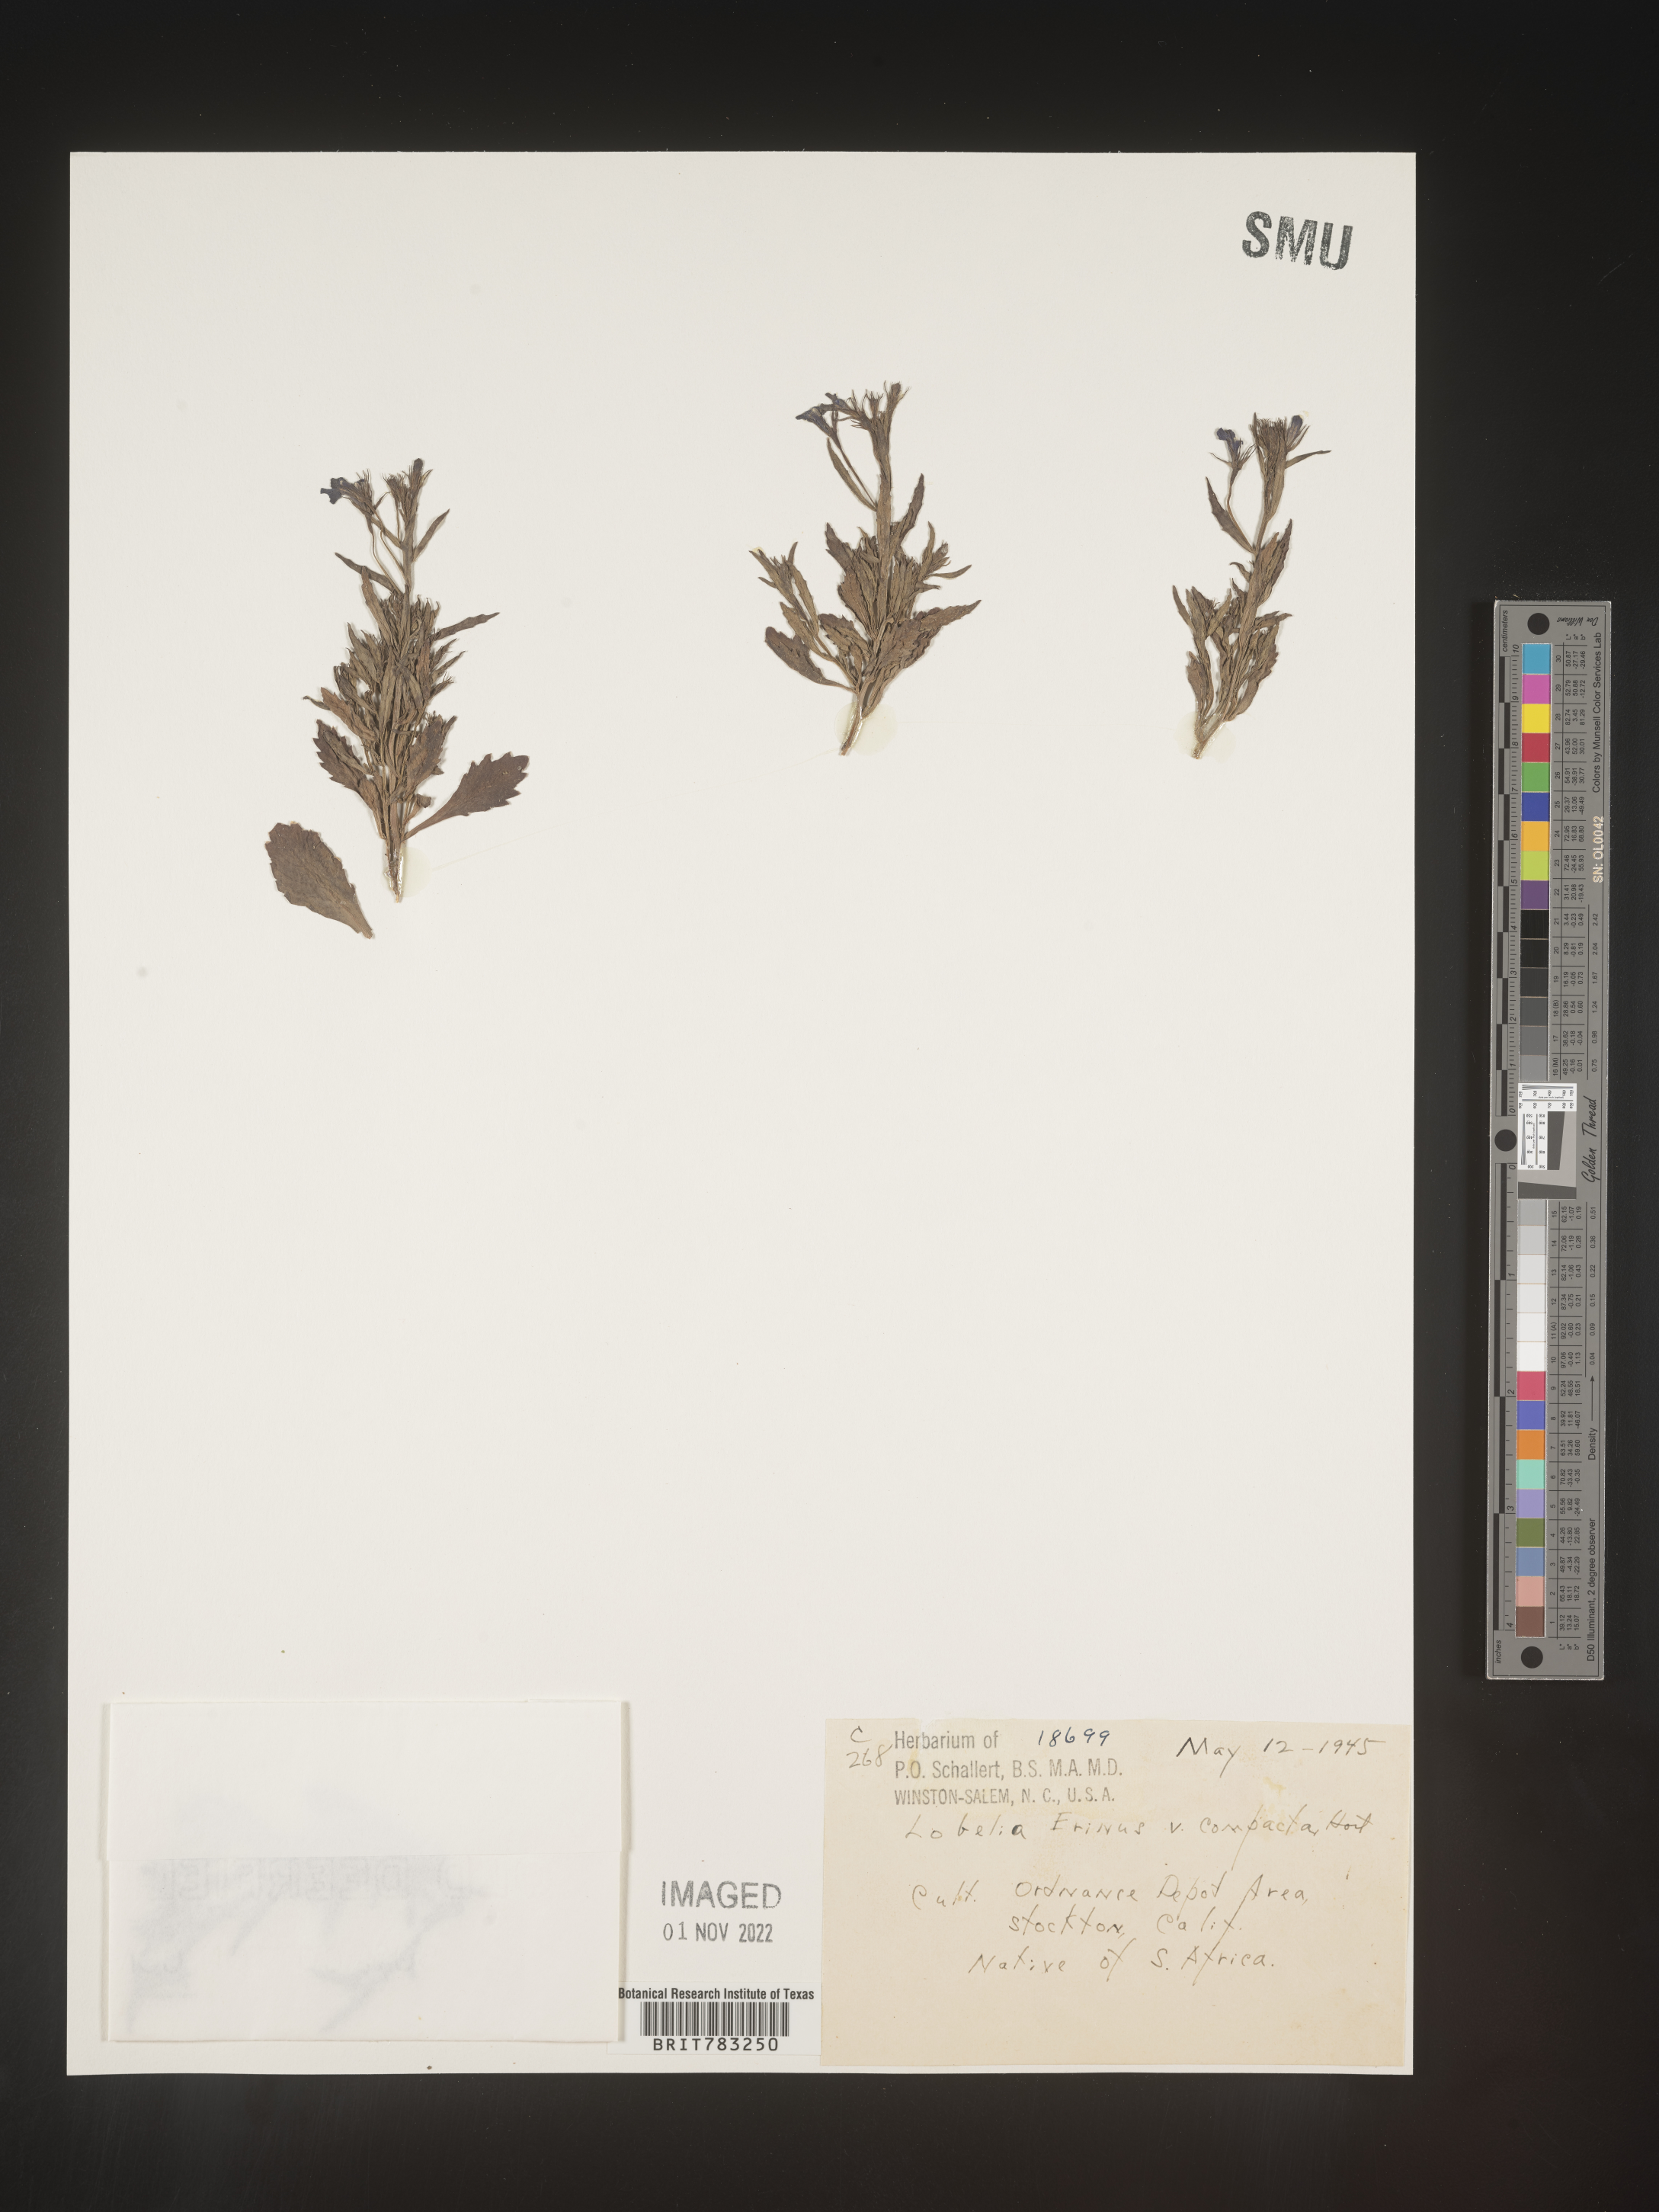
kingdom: Plantae
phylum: Tracheophyta
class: Magnoliopsida
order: Asterales
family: Campanulaceae
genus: Lobelia
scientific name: Lobelia
